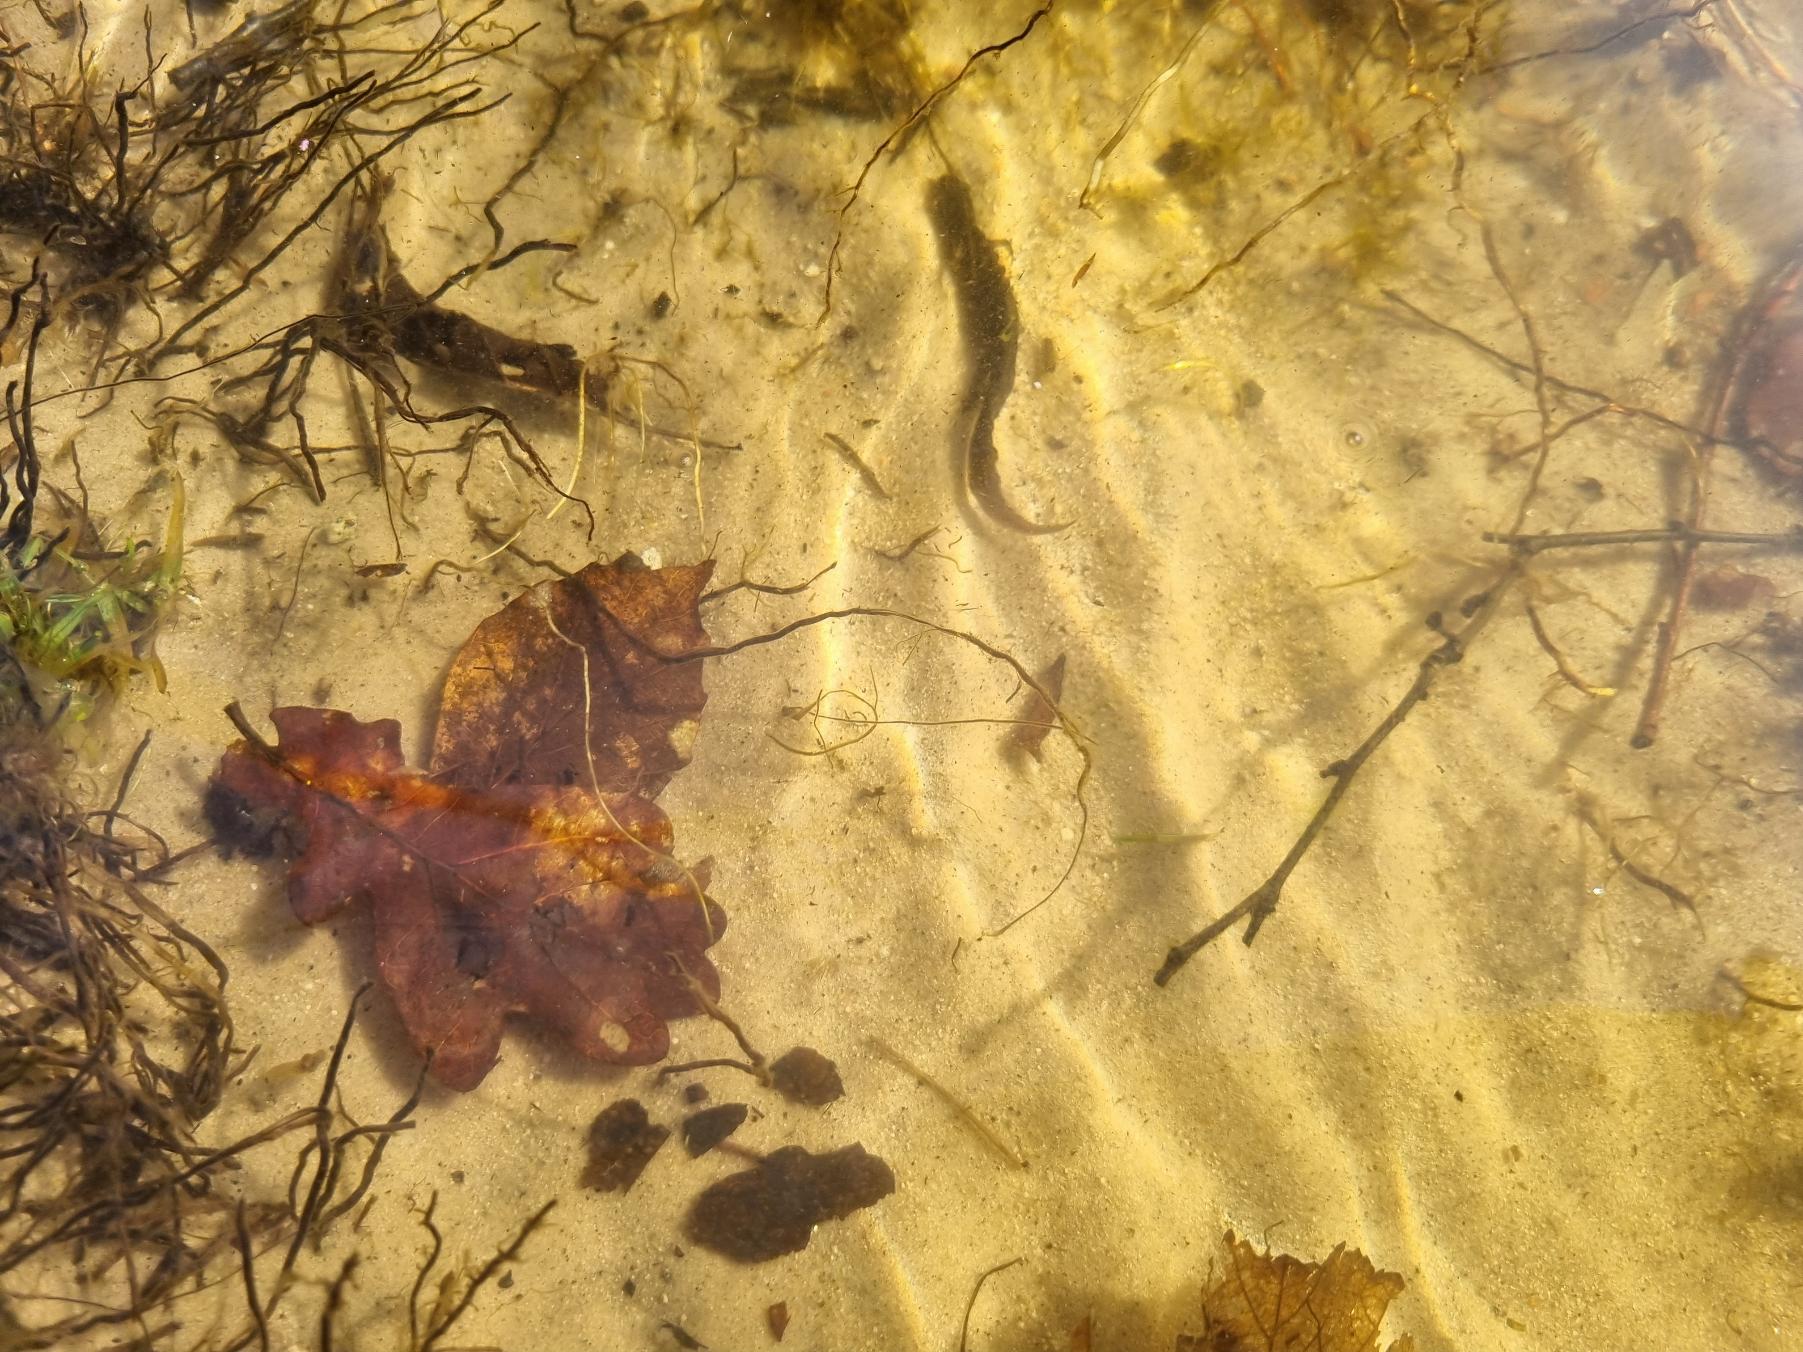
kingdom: Animalia
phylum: Chordata
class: Amphibia
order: Caudata
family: Salamandridae
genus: Lissotriton
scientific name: Lissotriton vulgaris
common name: Lille vandsalamander
